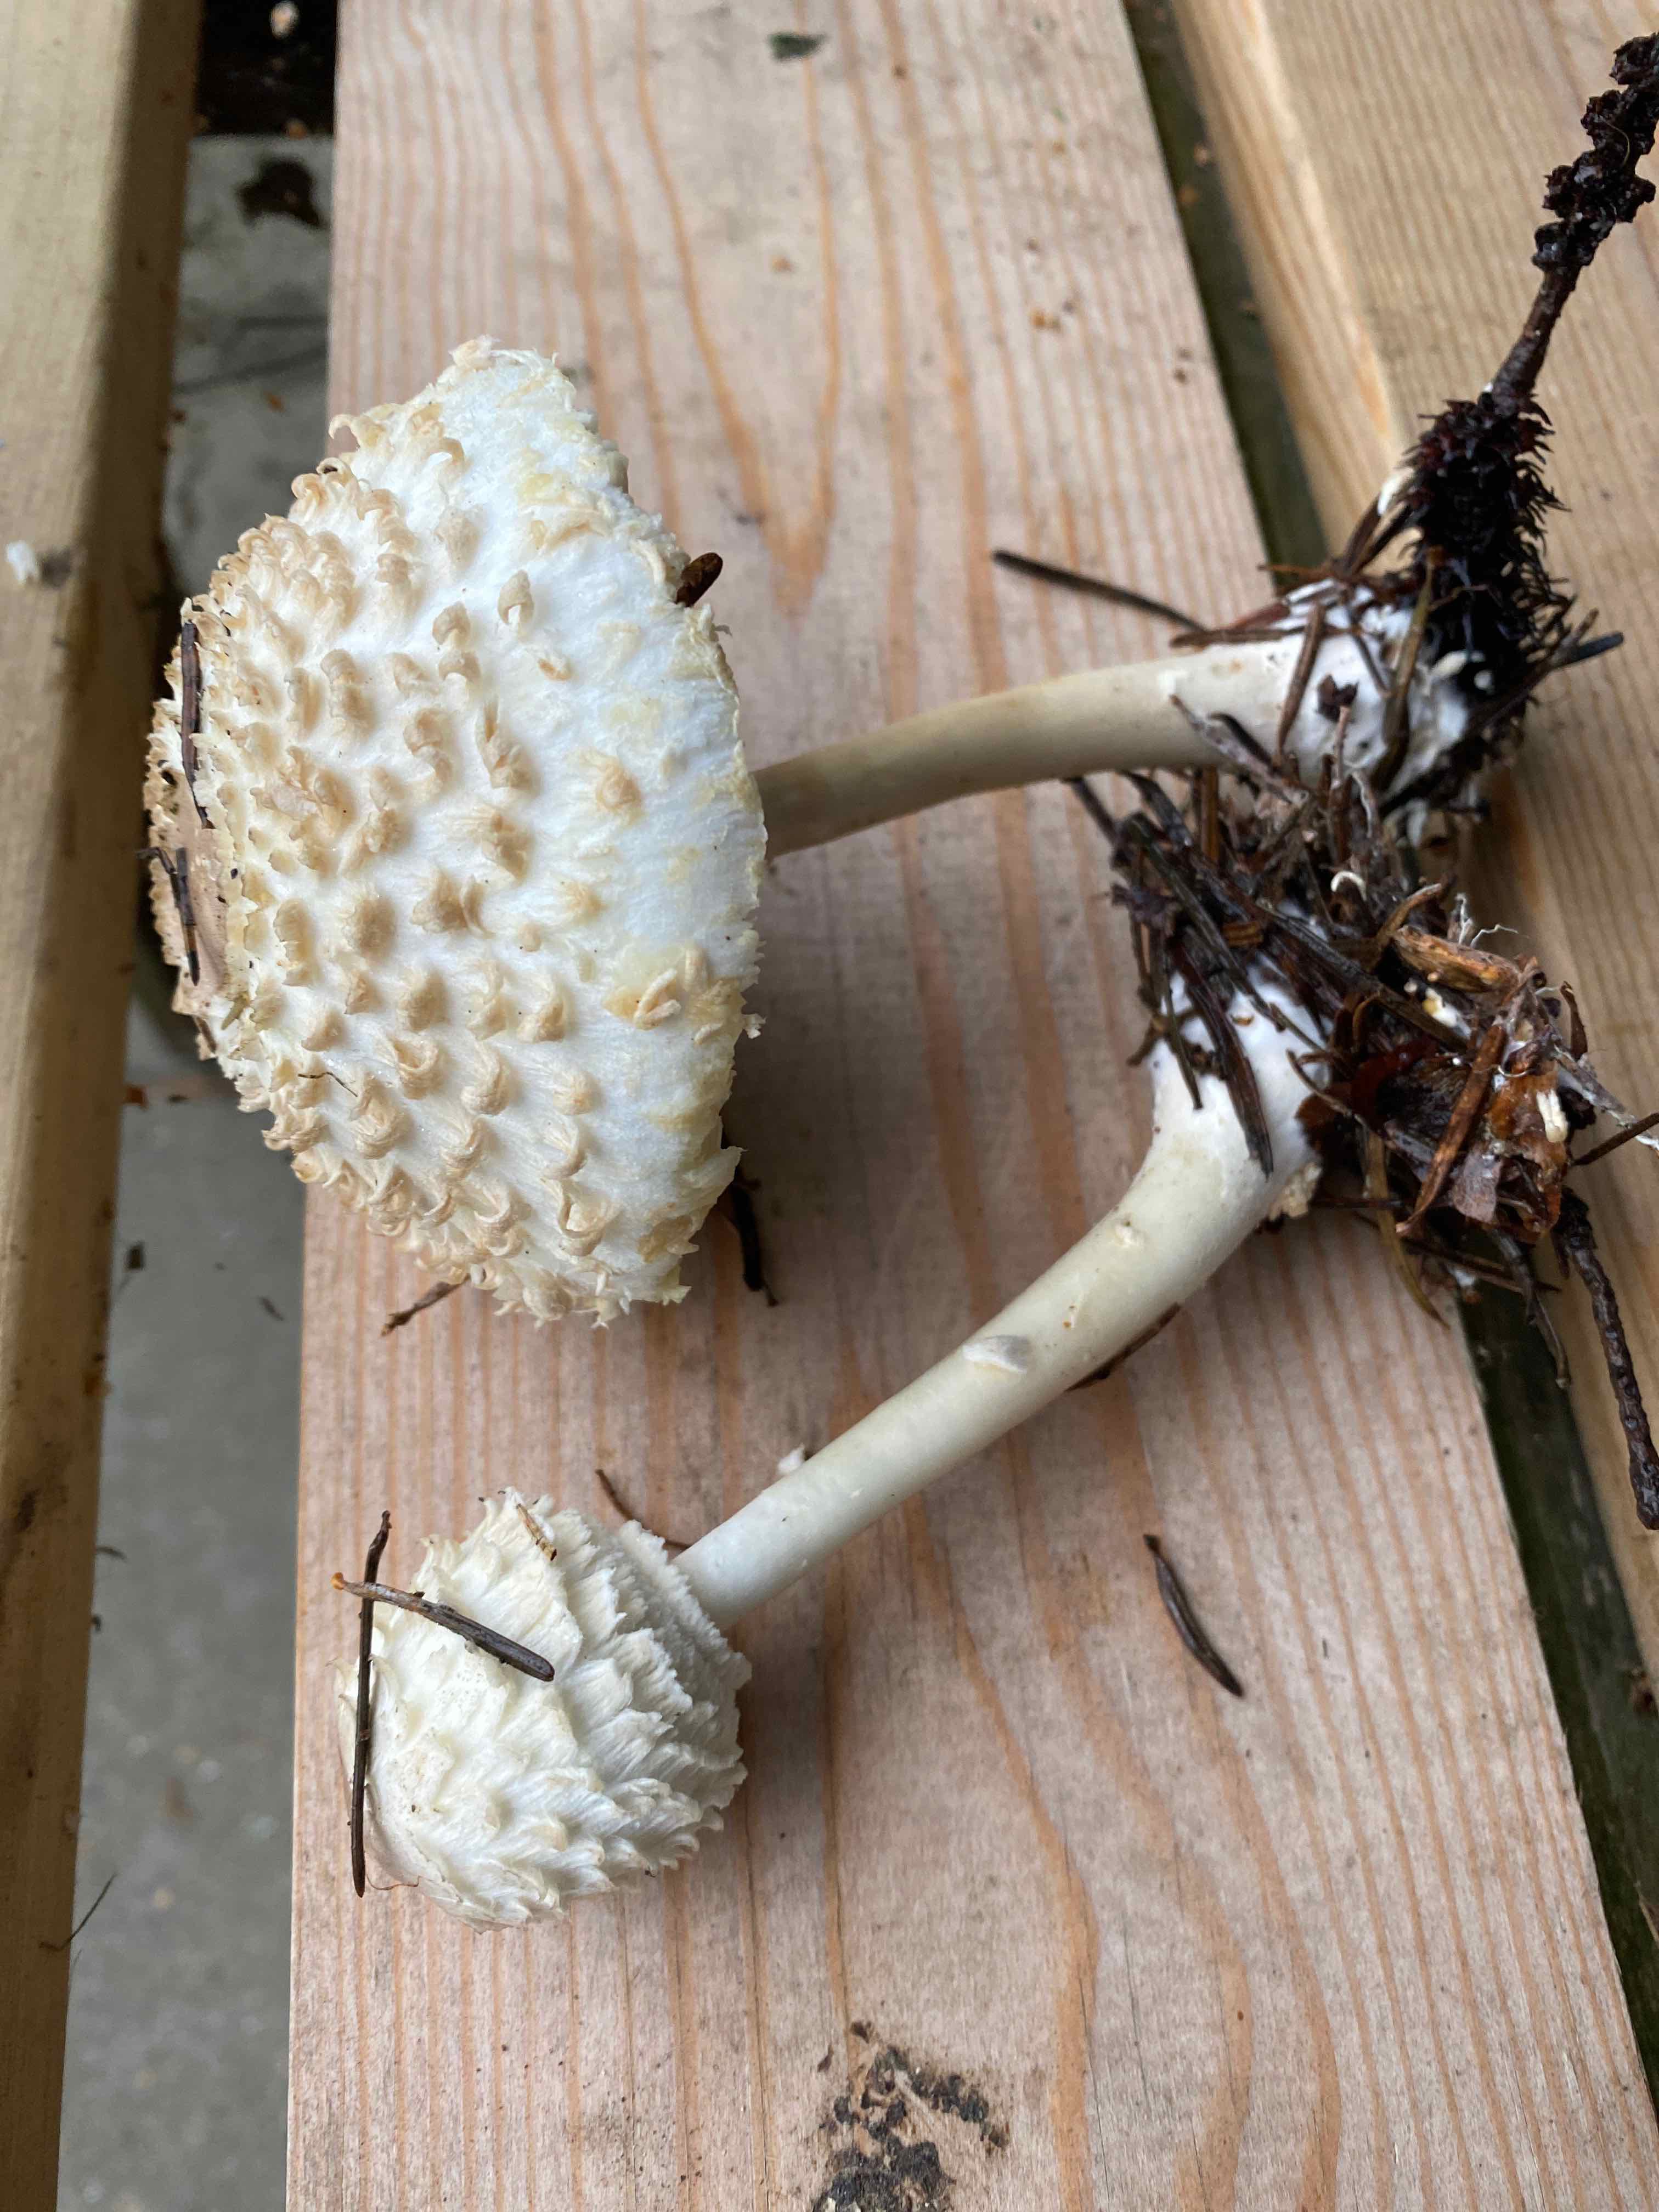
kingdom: Fungi
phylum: Basidiomycota
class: Agaricomycetes
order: Agaricales
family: Agaricaceae
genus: Leucoagaricus
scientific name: Leucoagaricus nympharum
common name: gran-silkehat
